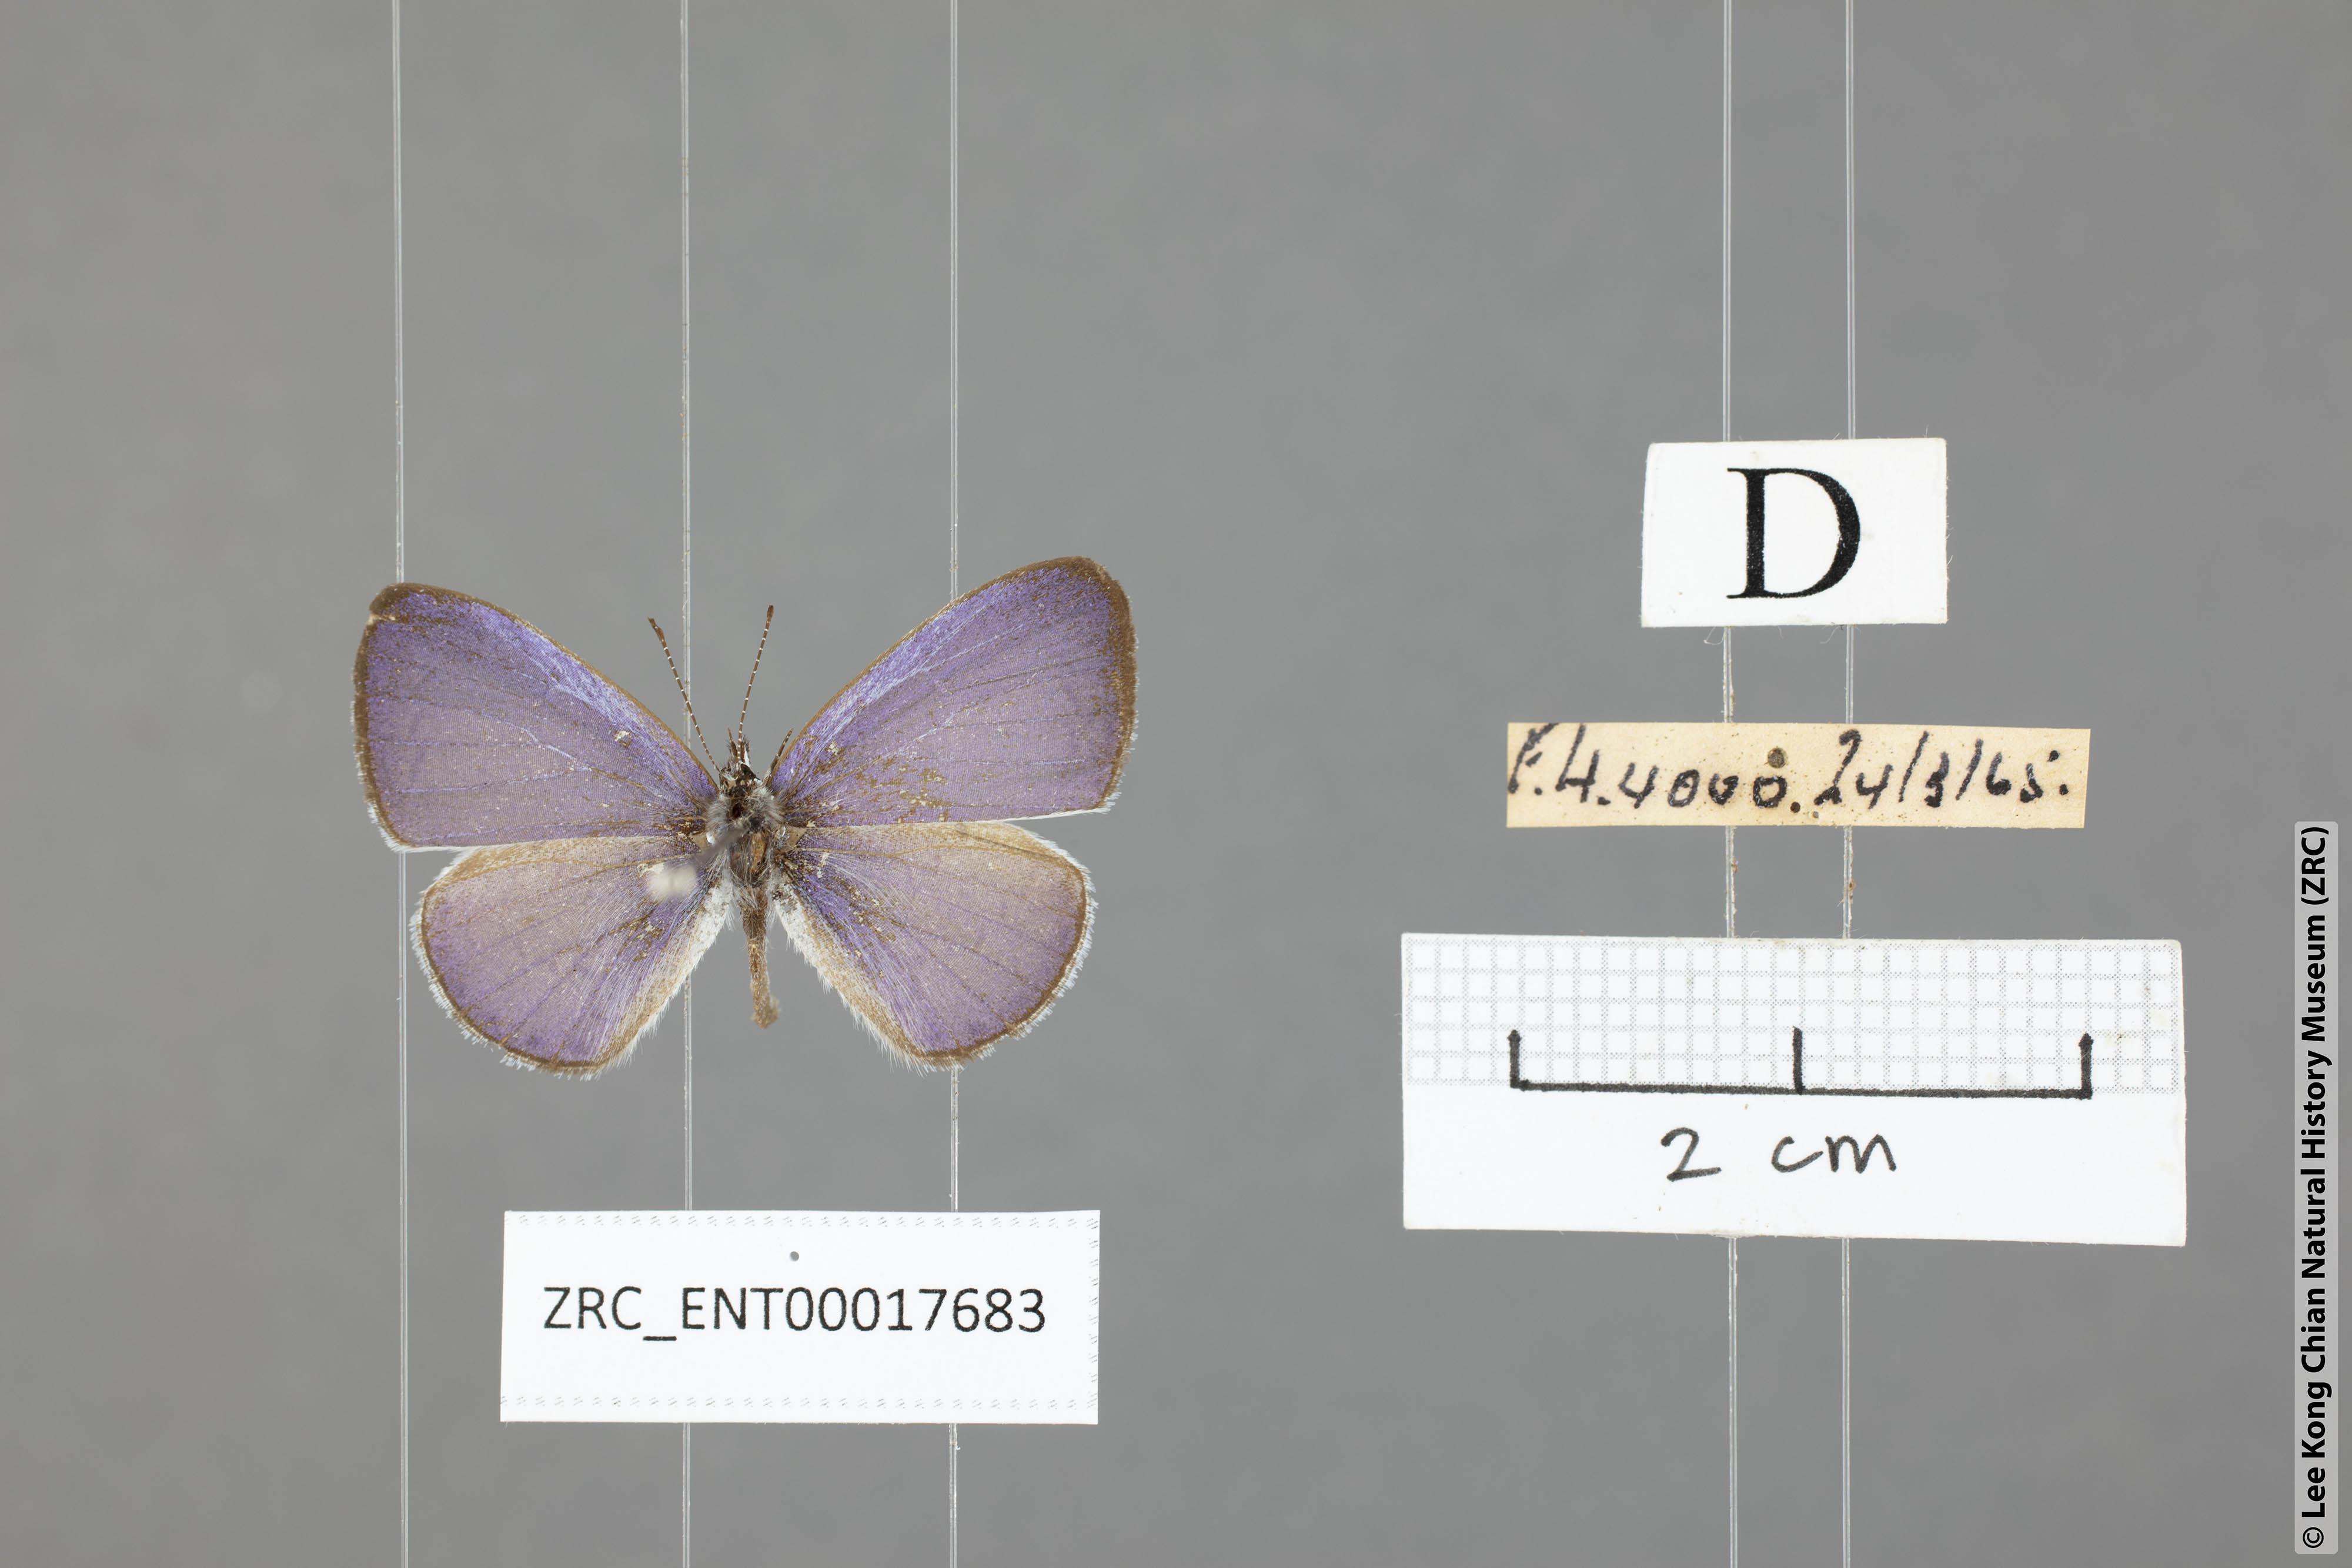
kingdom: Animalia
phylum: Arthropoda
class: Insecta
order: Lepidoptera
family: Lycaenidae
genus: Udara
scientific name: Udara camenae
